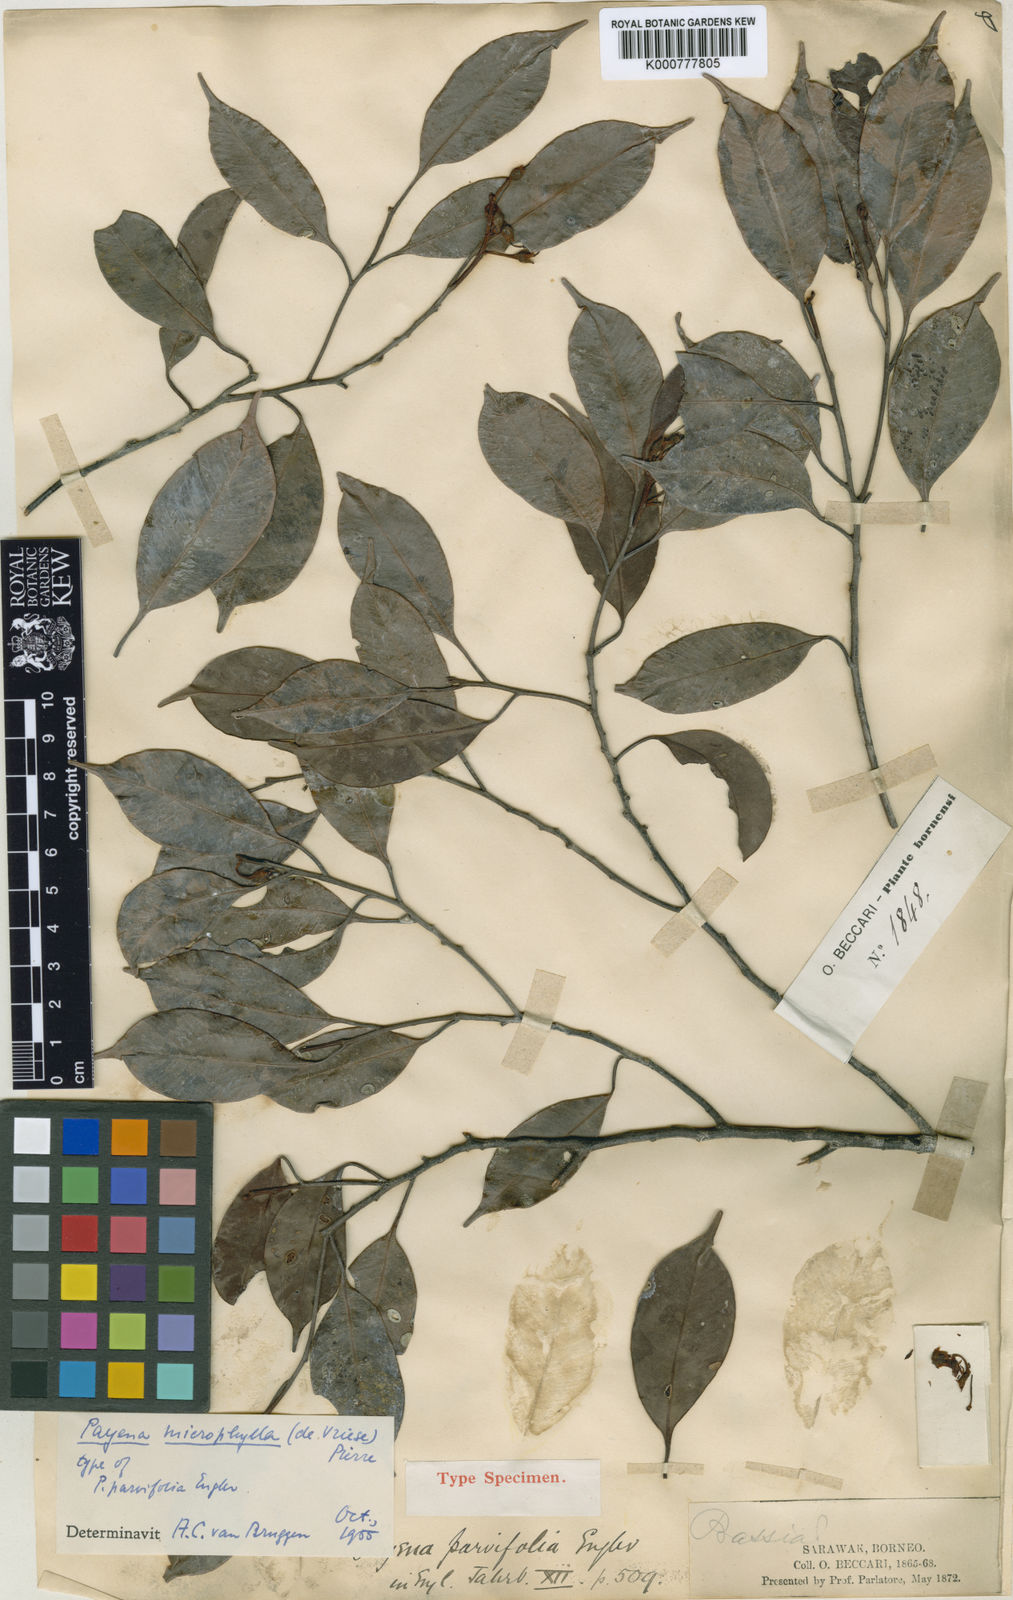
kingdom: Plantae
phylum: Tracheophyta
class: Magnoliopsida
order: Ericales
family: Sapotaceae
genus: Payena
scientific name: Payena leerii
